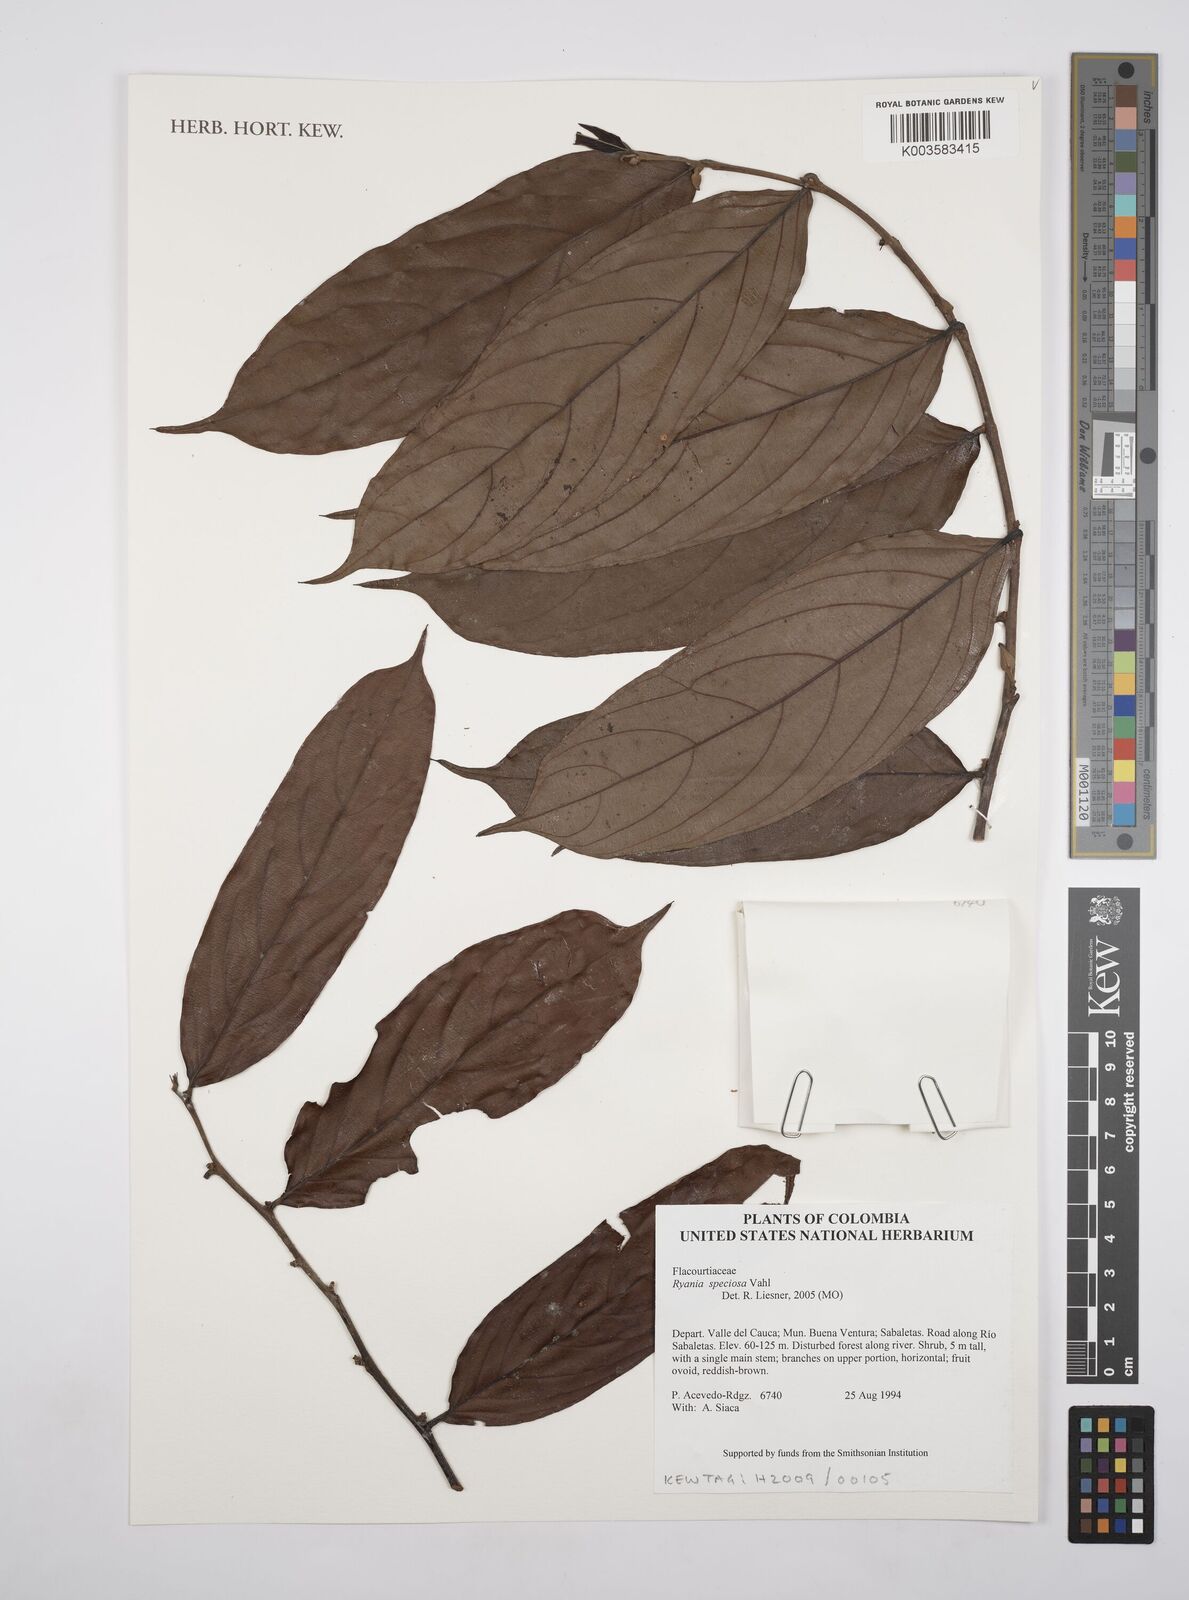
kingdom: Plantae
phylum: Tracheophyta
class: Magnoliopsida
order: Malpighiales
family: Salicaceae
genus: Ryania
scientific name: Ryania speciosa
